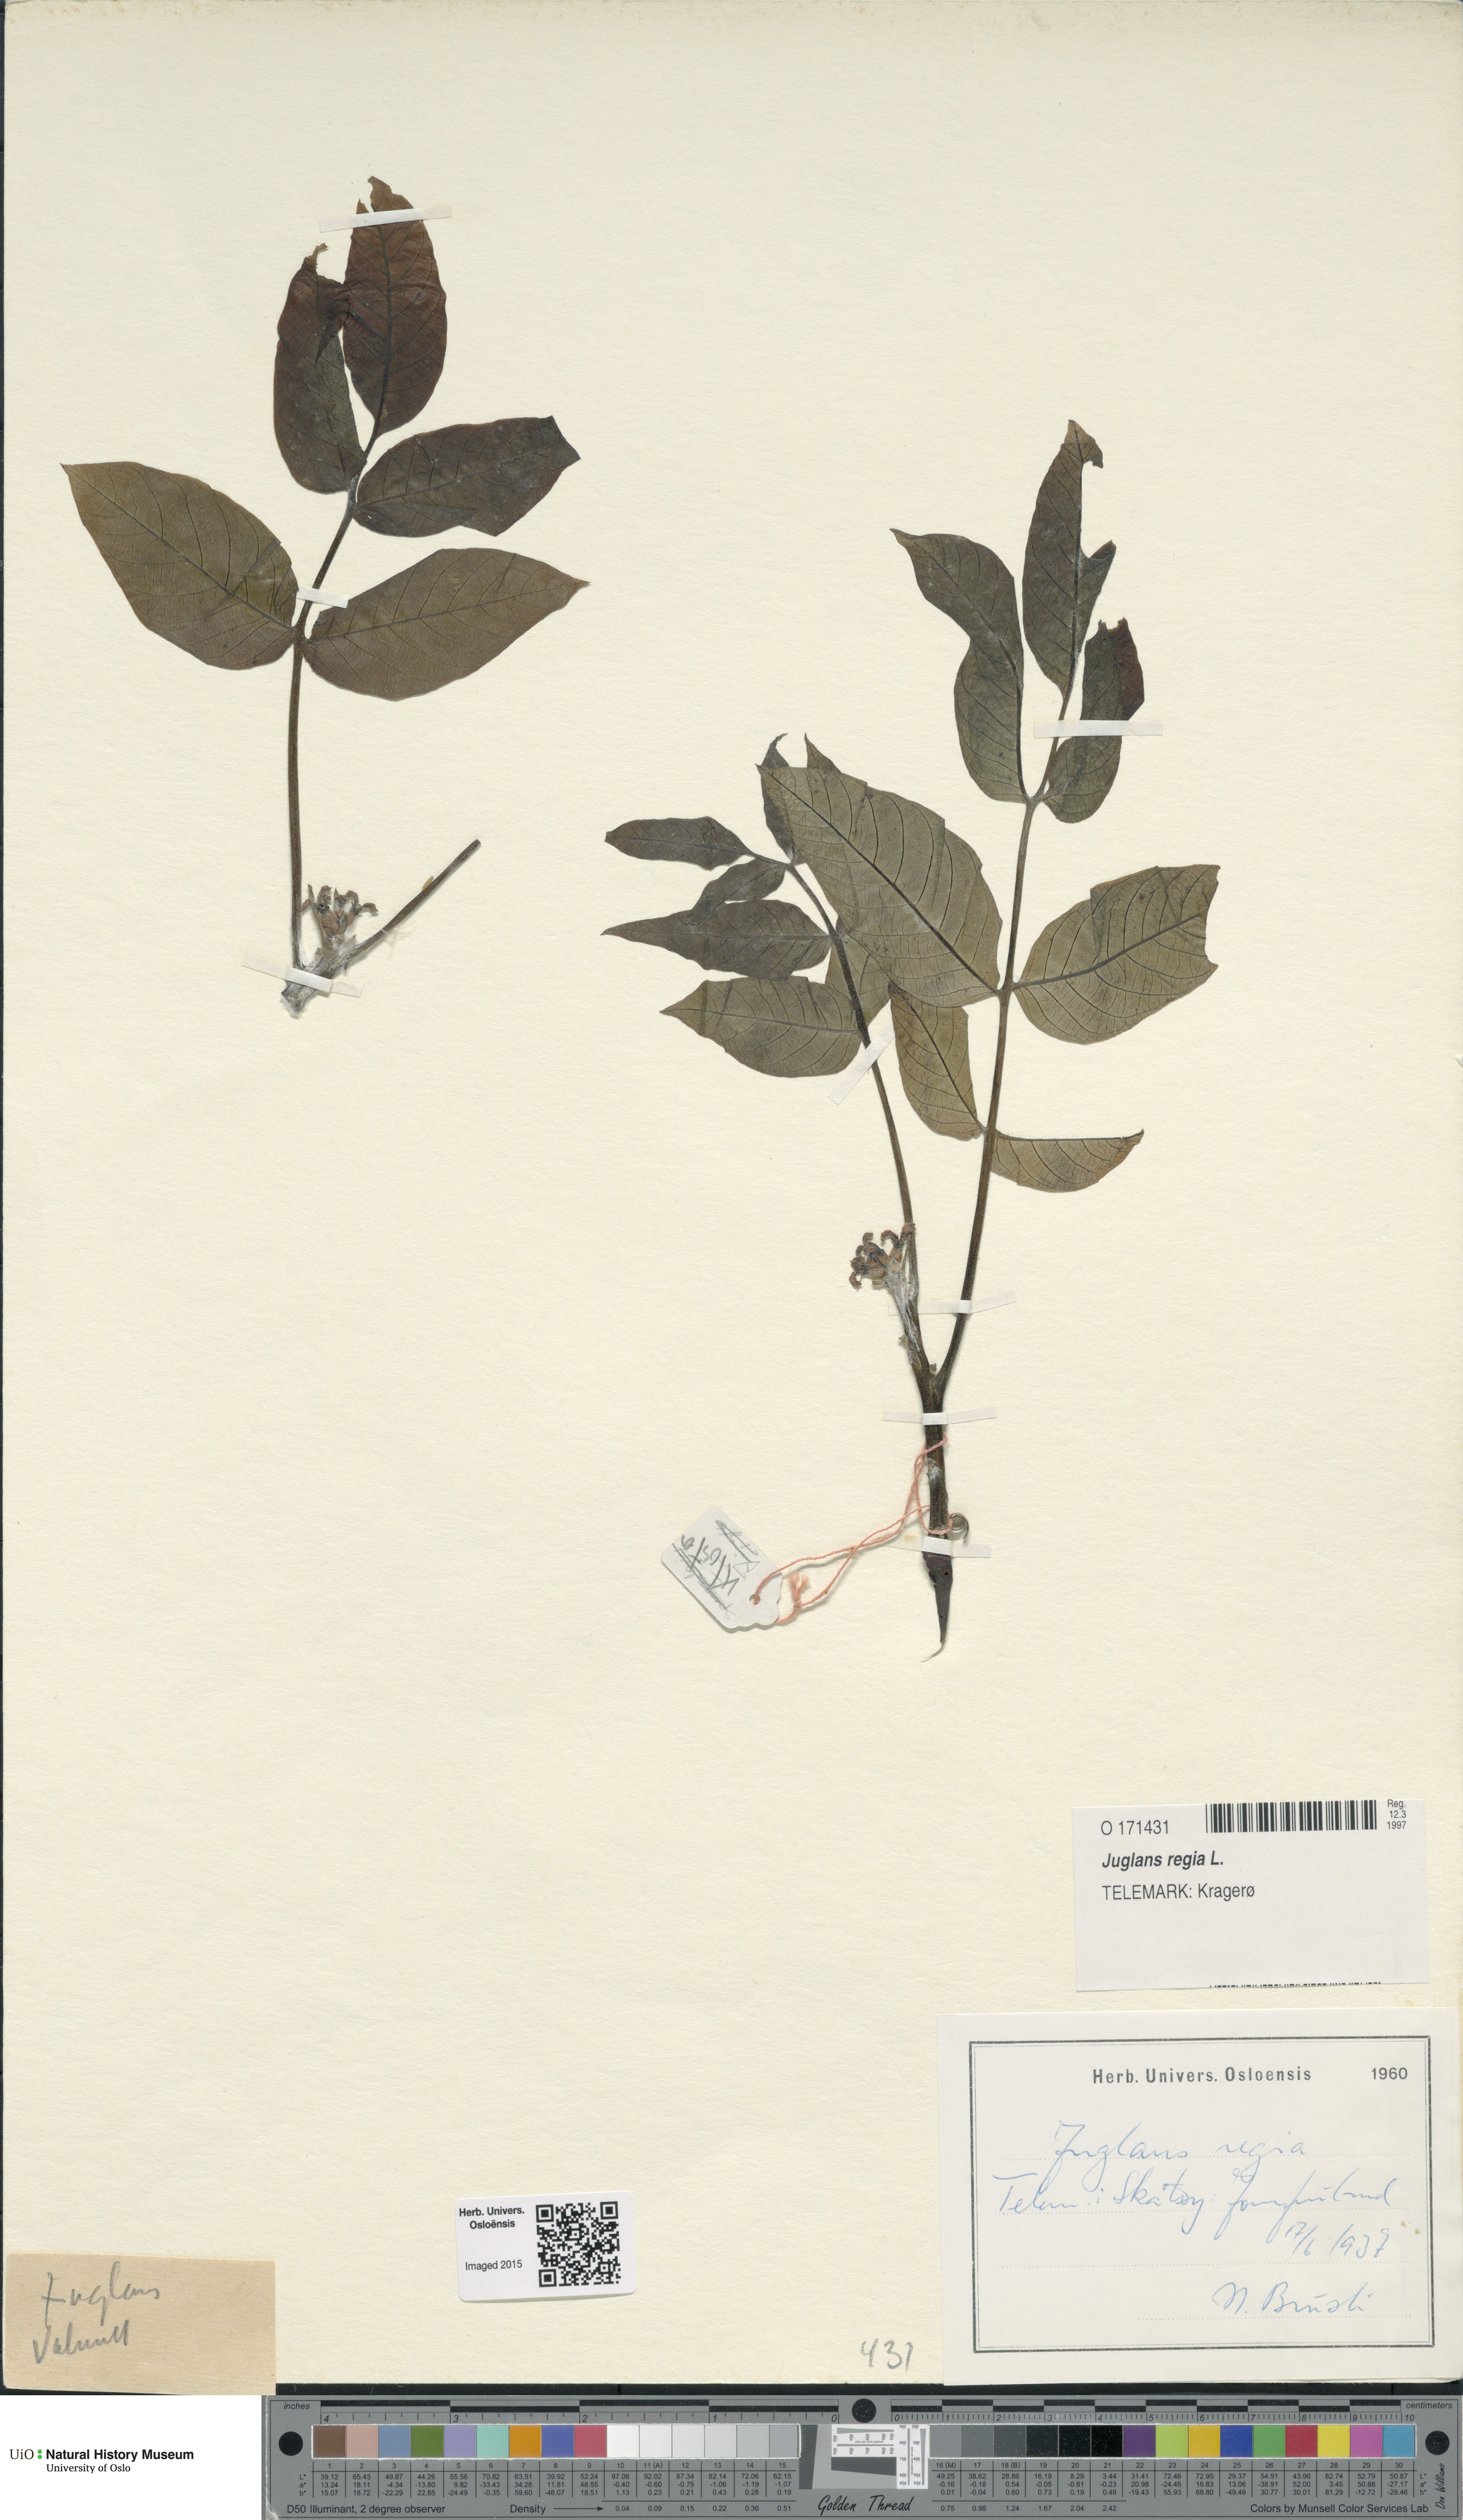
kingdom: Plantae
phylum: Tracheophyta
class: Magnoliopsida
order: Fagales
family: Juglandaceae
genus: Juglans
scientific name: Juglans regia
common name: Walnut
